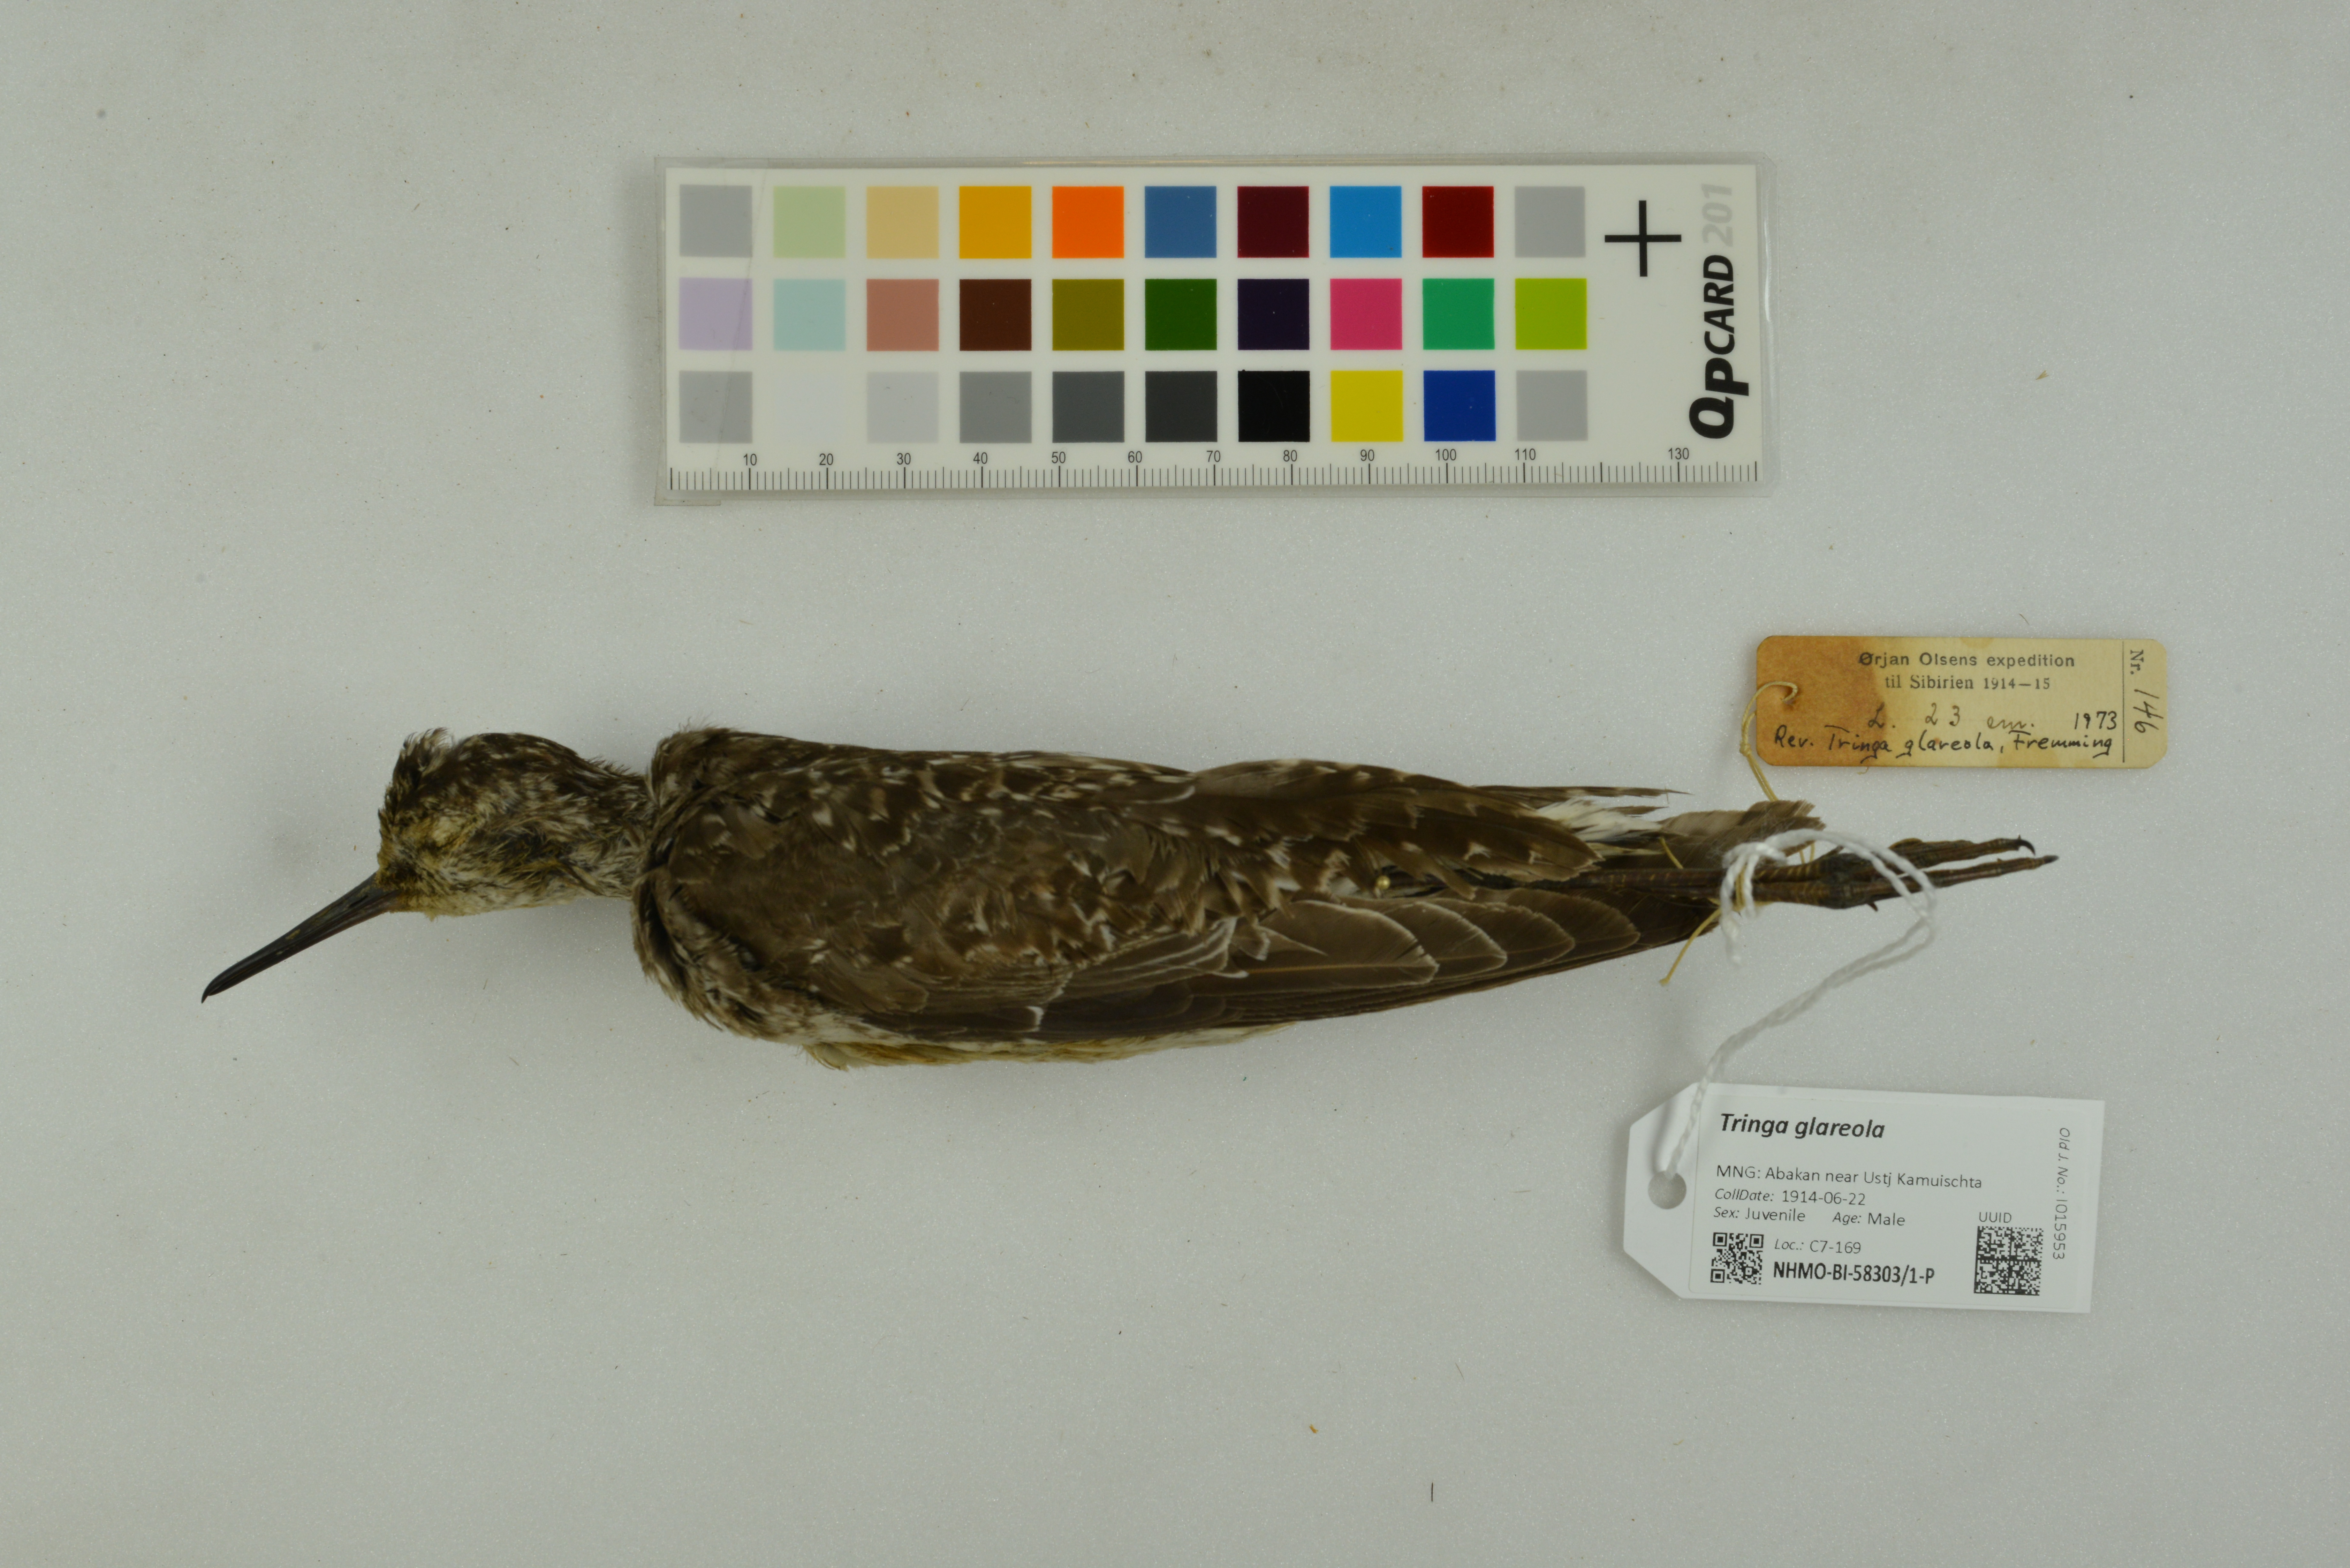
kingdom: Animalia
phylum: Chordata
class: Aves
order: Charadriiformes
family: Scolopacidae
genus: Tringa
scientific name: Tringa glareola
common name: Wood sandpiper
